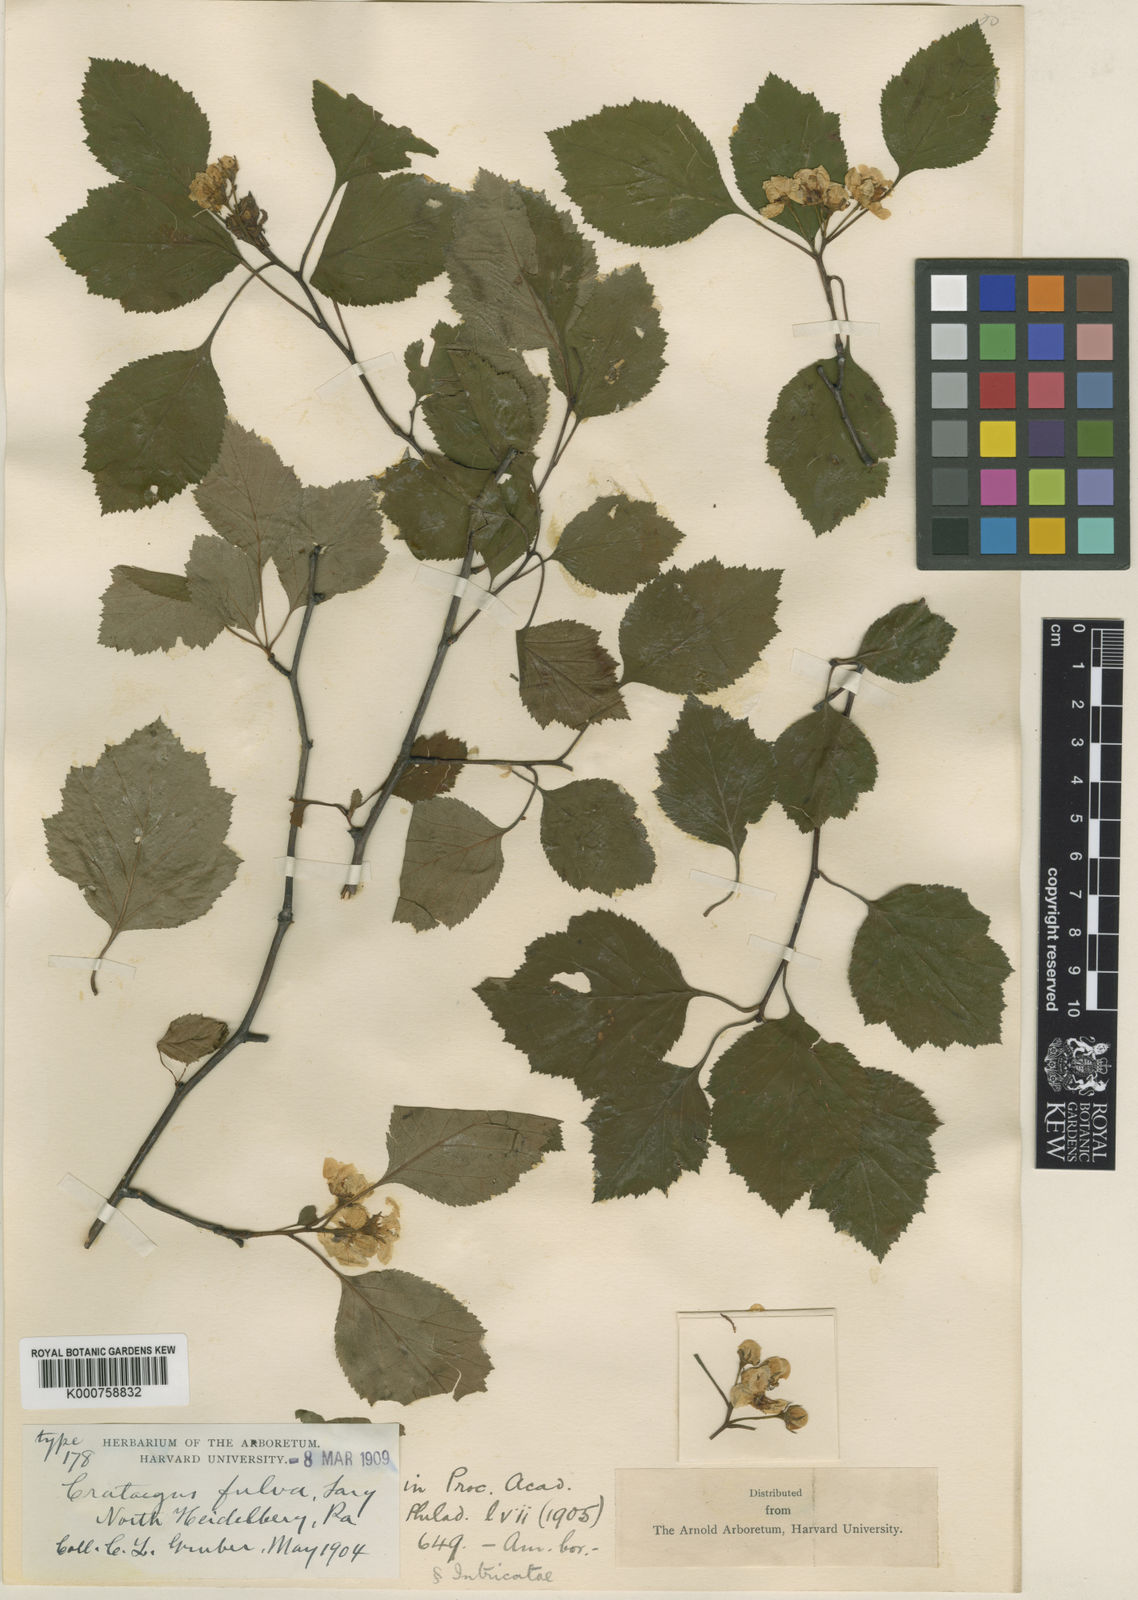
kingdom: Plantae
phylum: Tracheophyta
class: Magnoliopsida
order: Rosales
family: Rosaceae
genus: Crataegus
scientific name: Crataegus fulva
